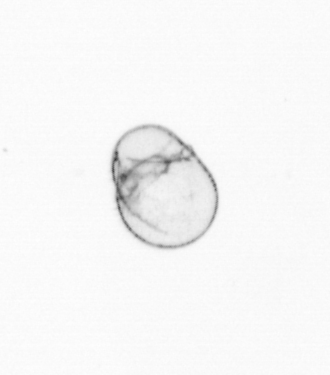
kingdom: Chromista
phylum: Myzozoa
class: Dinophyceae
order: Noctilucales
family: Noctilucaceae
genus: Noctiluca
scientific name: Noctiluca scintillans
